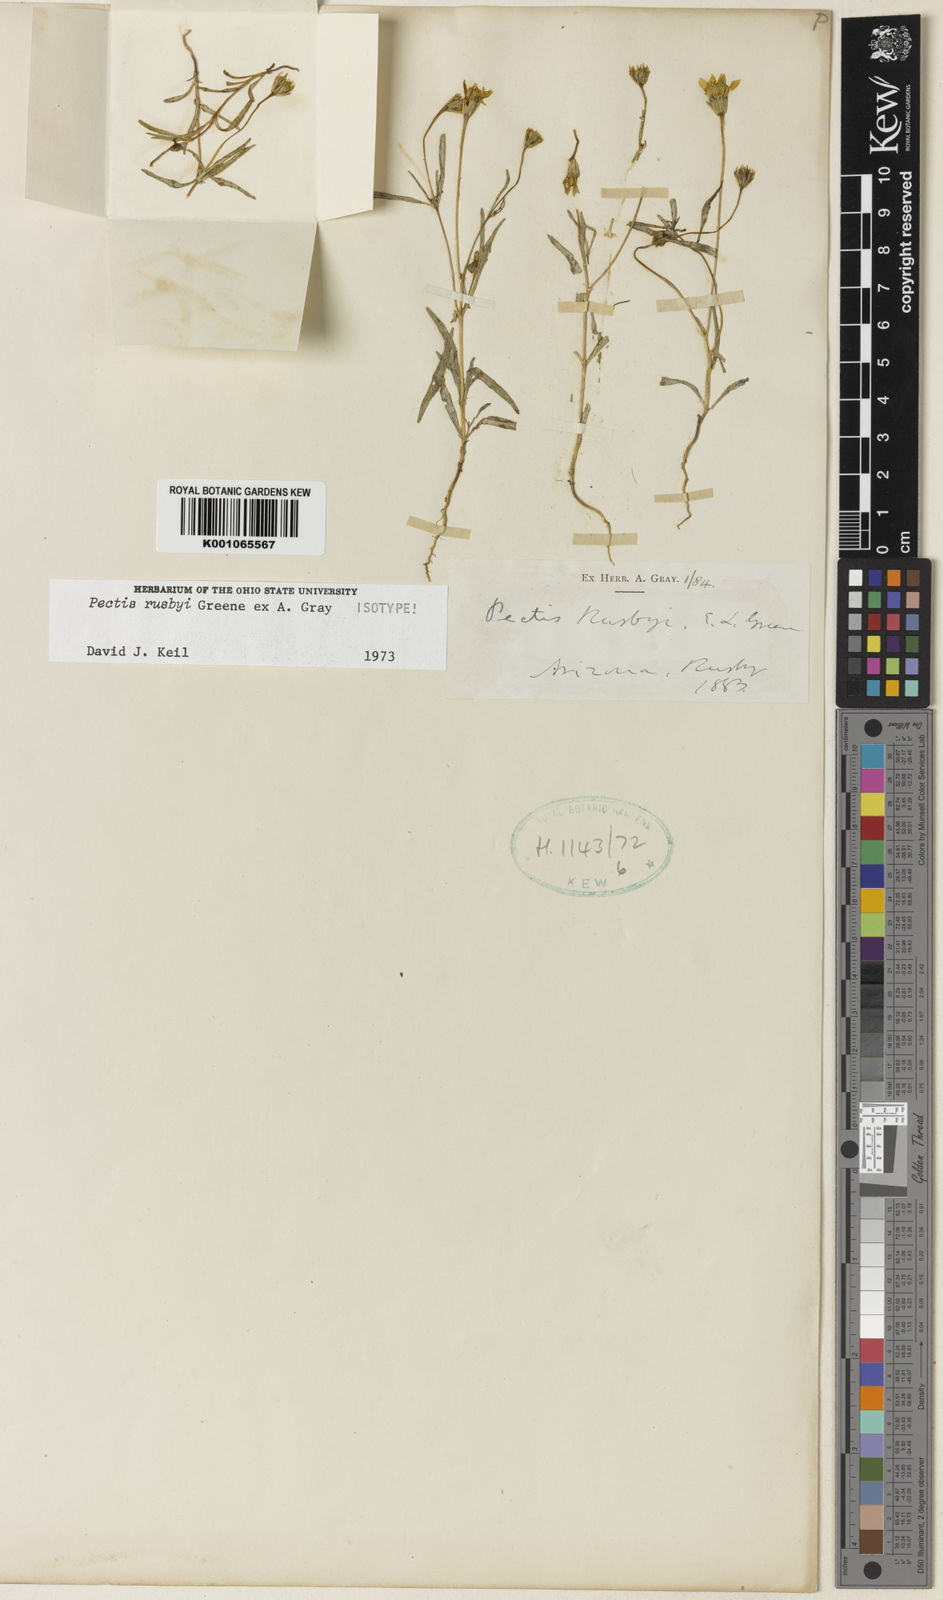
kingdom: Plantae
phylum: Tracheophyta
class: Magnoliopsida
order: Asterales
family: Asteraceae
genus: Pectis
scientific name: Pectis rusbyi
